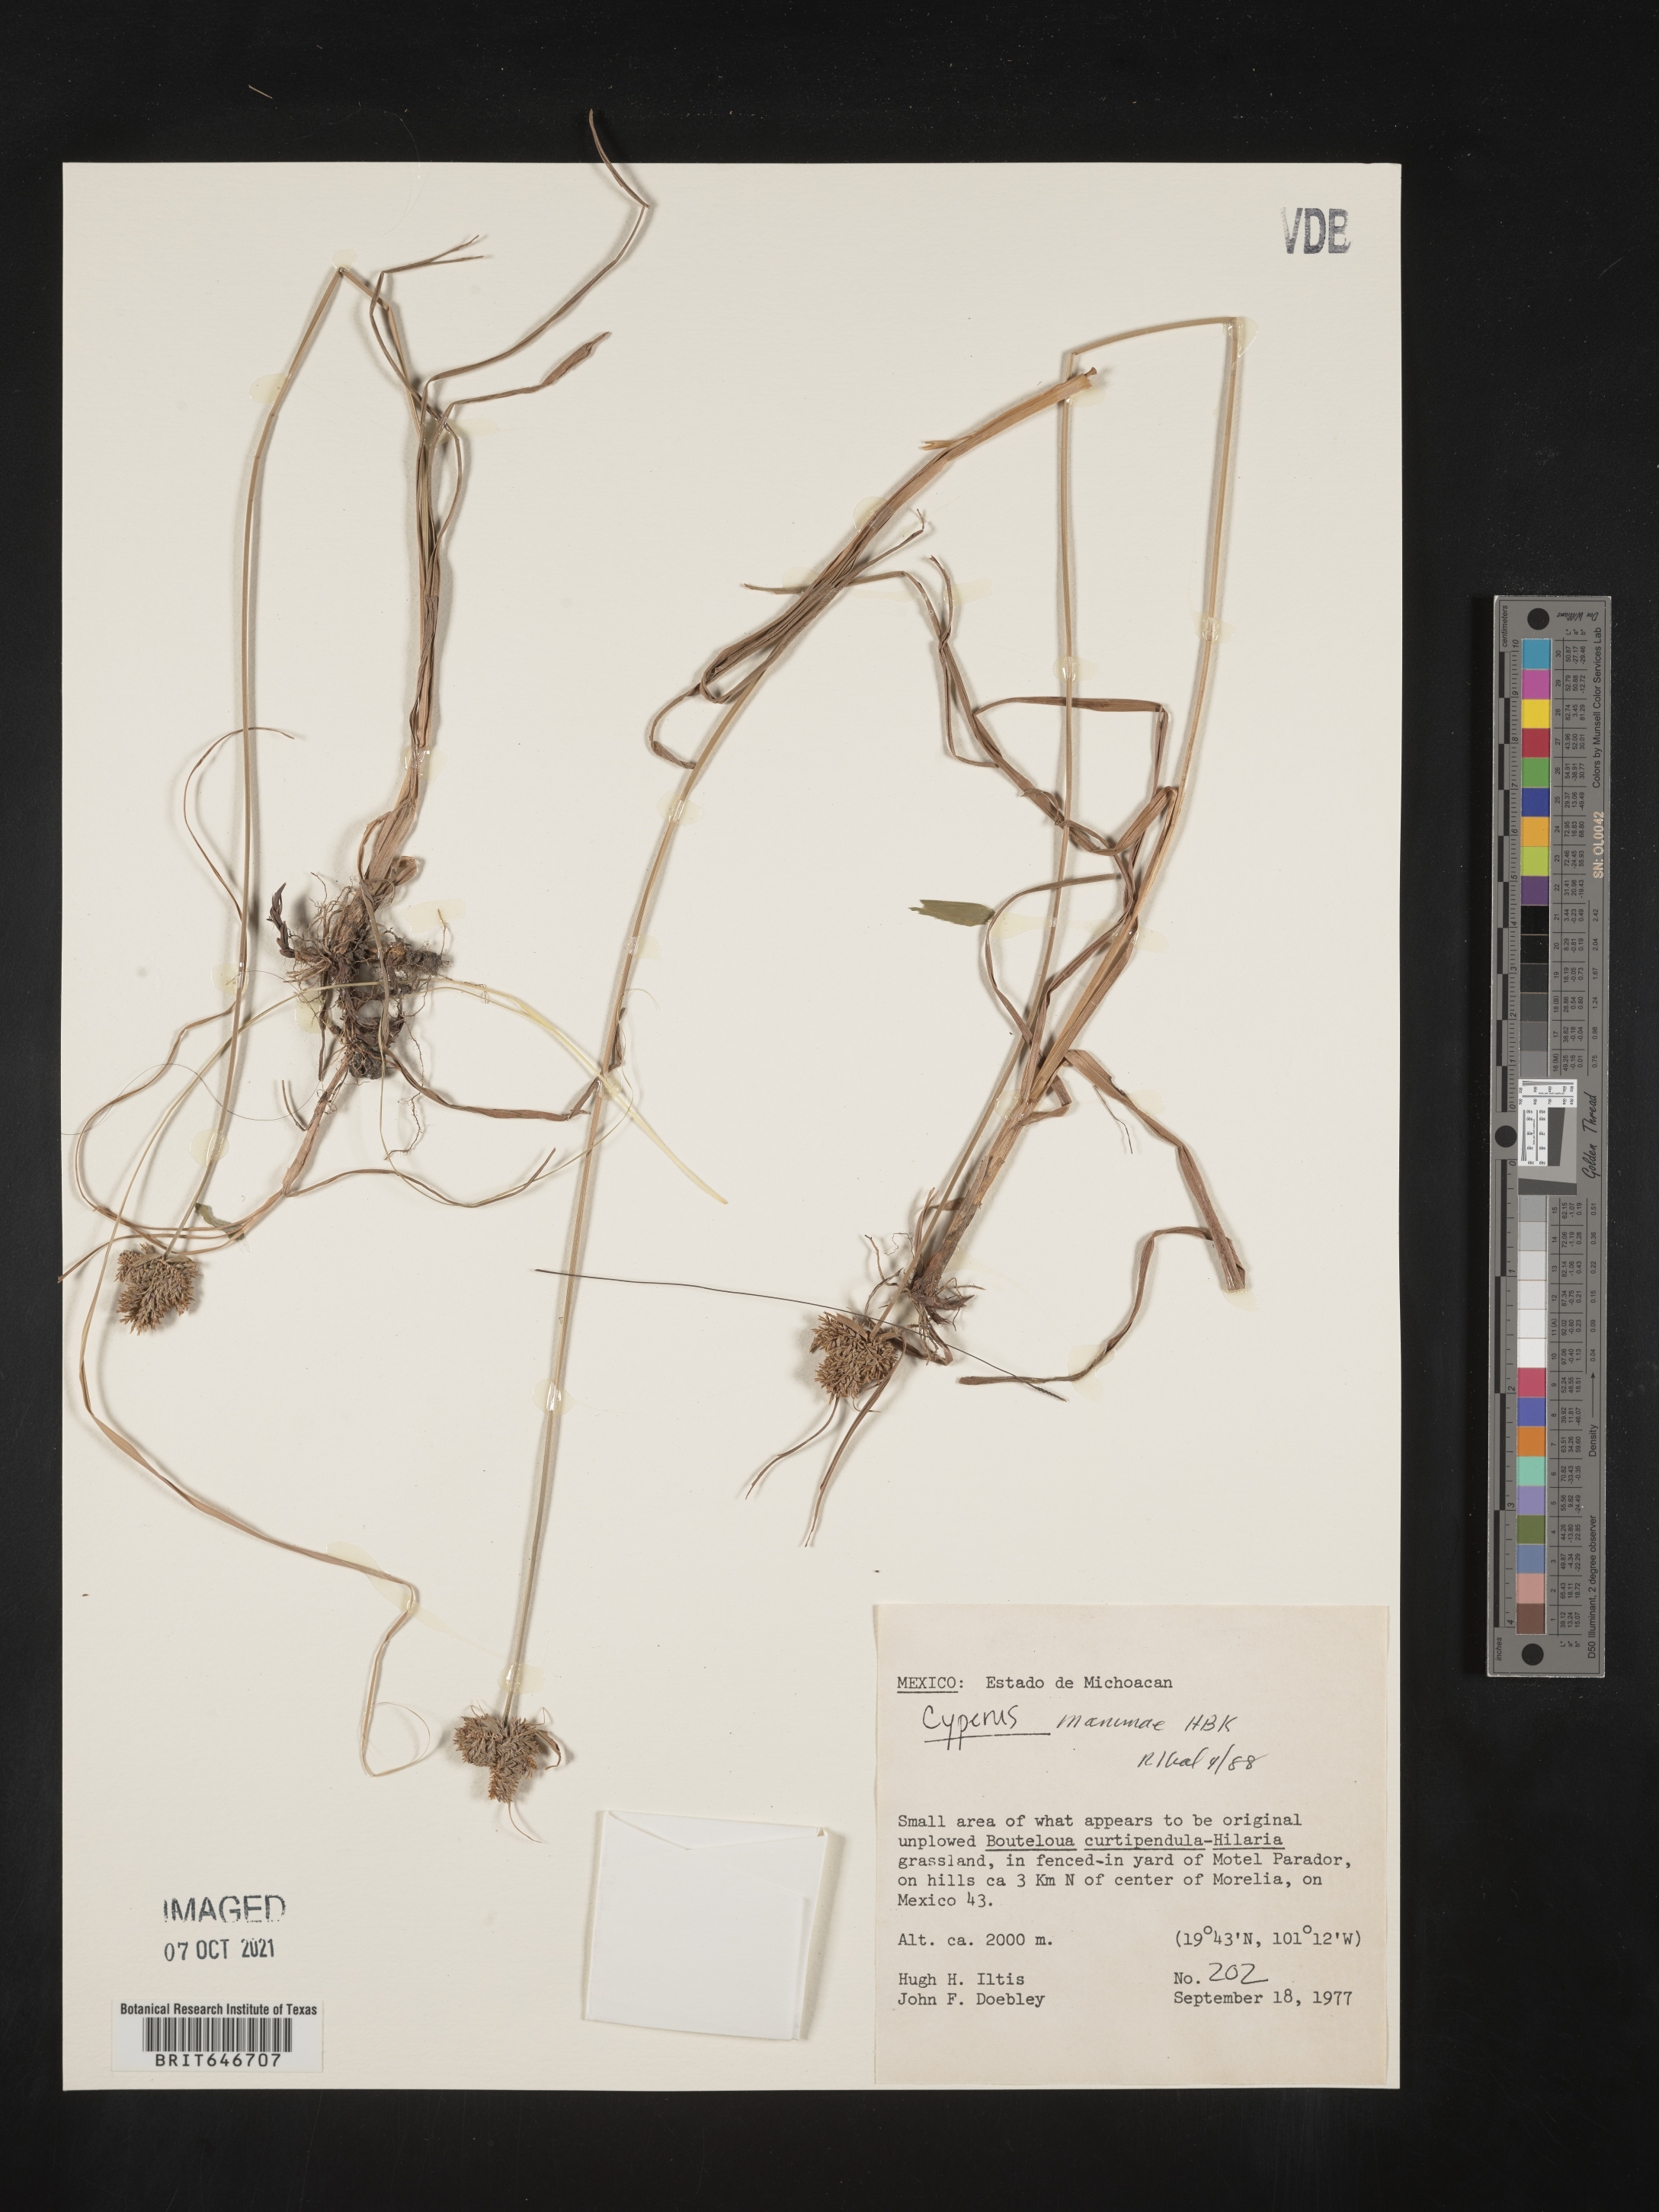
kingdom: Plantae
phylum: Tracheophyta
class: Liliopsida
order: Poales
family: Cyperaceae
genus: Cyperus
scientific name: Cyperus
